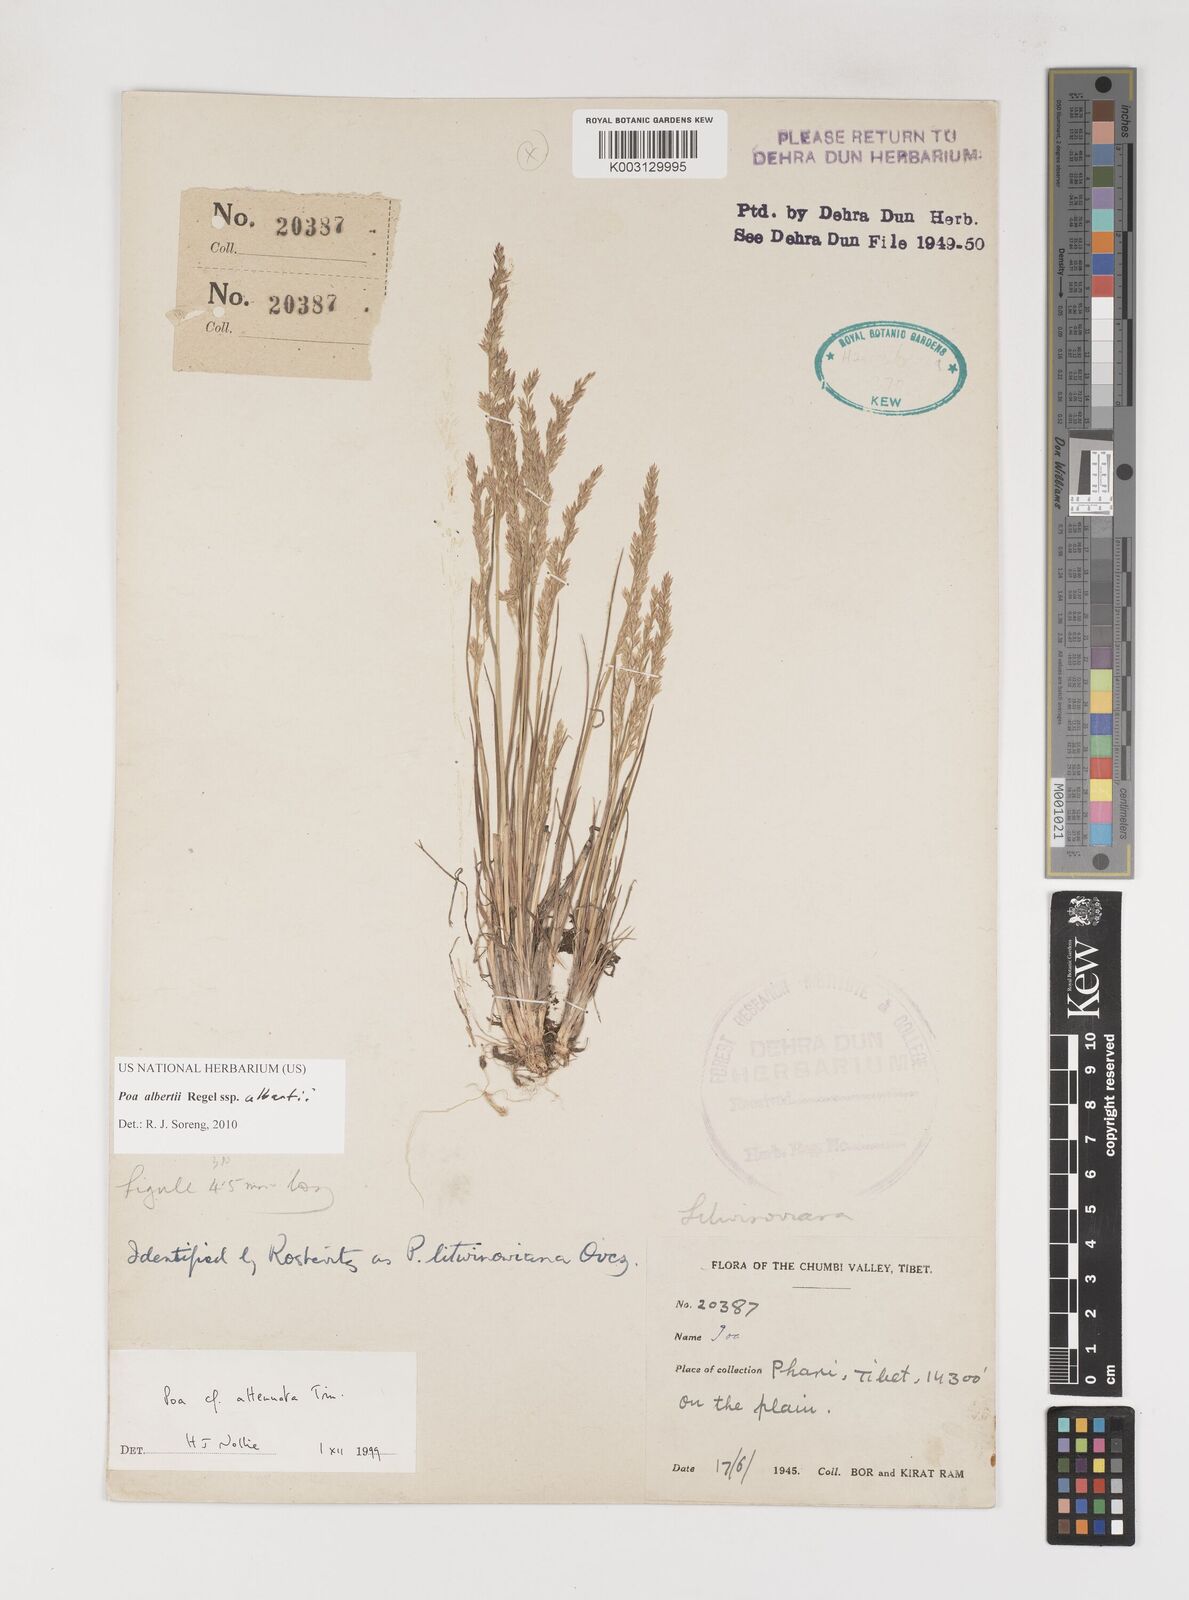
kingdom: Plantae
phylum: Tracheophyta
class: Liliopsida
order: Poales
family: Poaceae
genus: Poa
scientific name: Poa alberti
